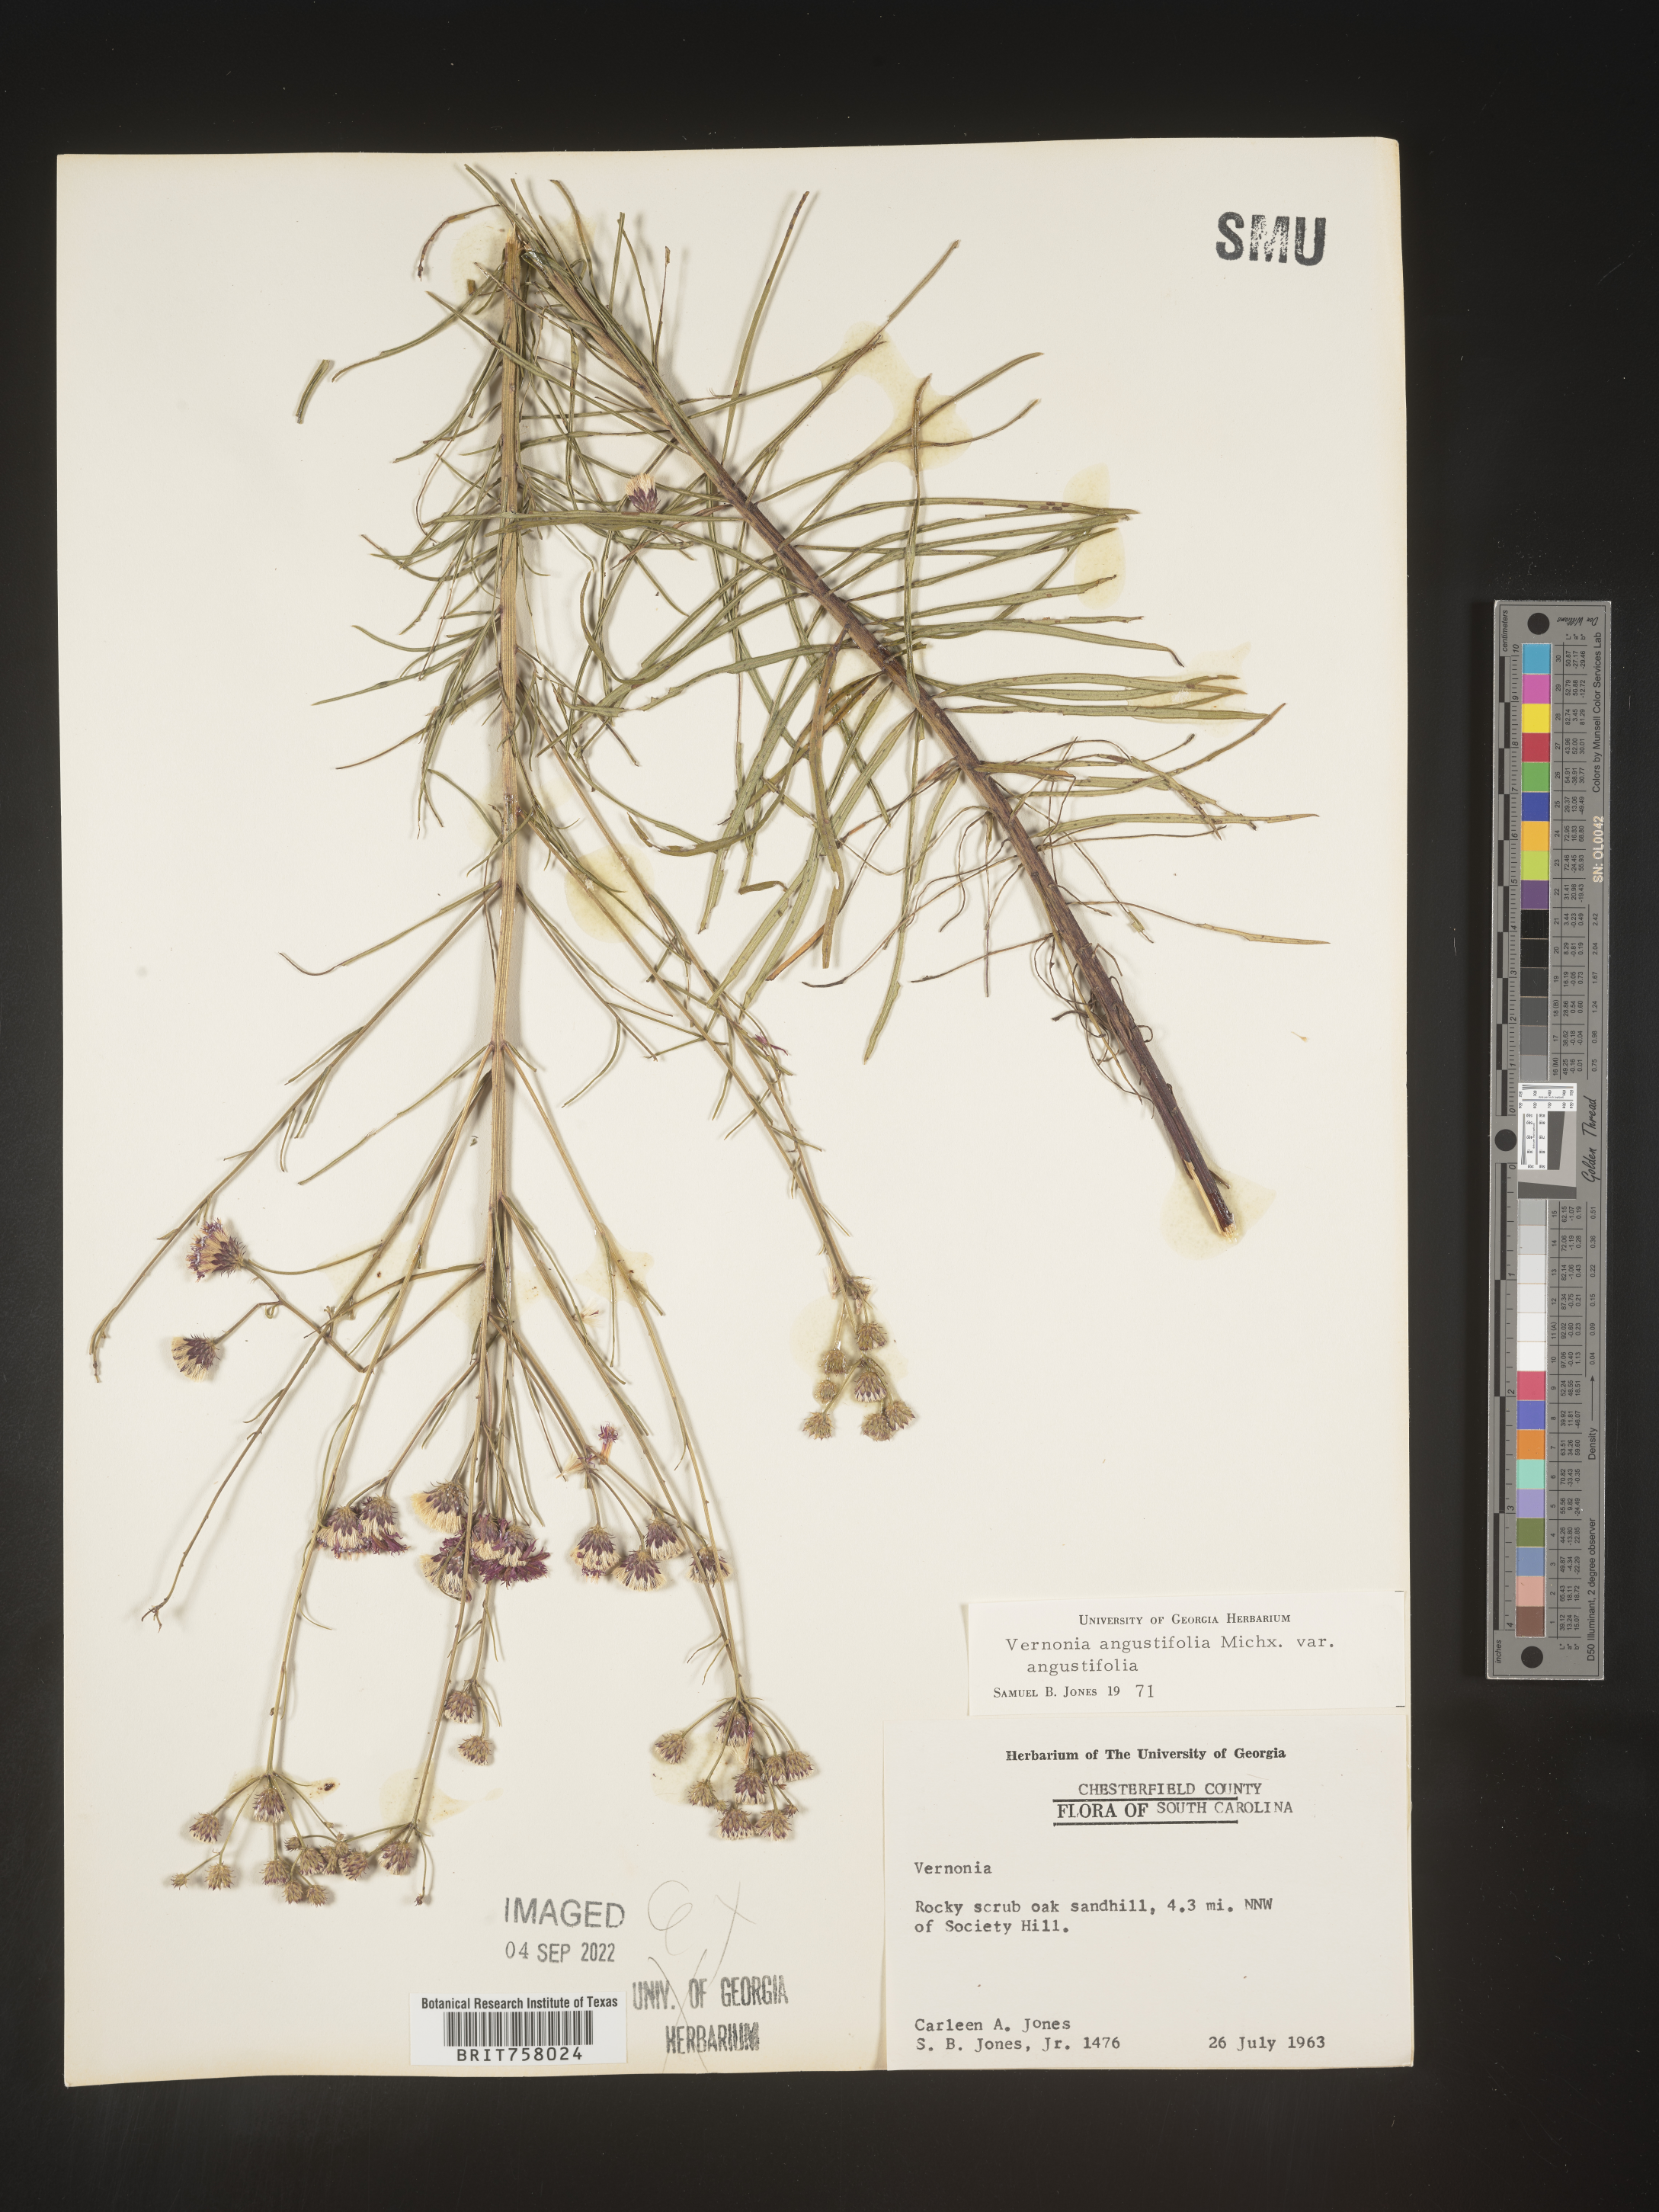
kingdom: Plantae
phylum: Tracheophyta
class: Magnoliopsida
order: Asterales
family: Asteraceae
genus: Vernonia
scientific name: Vernonia angustifolia
